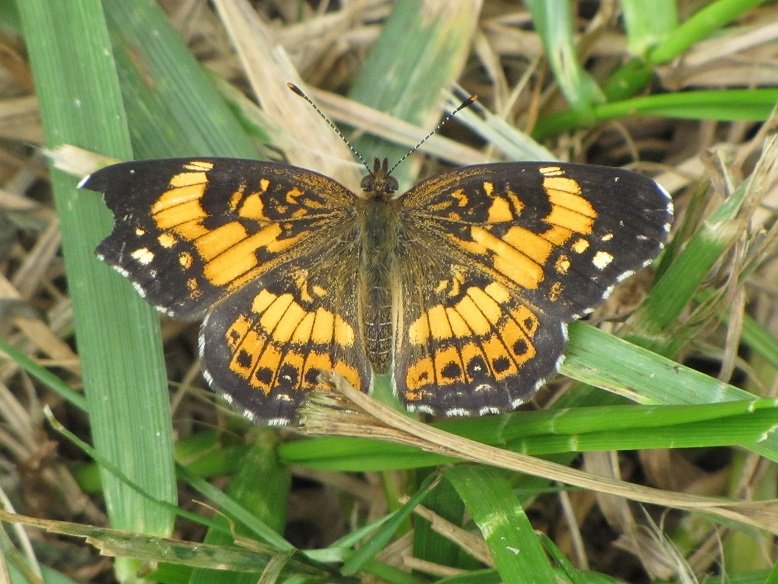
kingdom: Animalia
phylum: Arthropoda
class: Insecta
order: Lepidoptera
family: Nymphalidae
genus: Chlosyne
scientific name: Chlosyne nycteis
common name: Silvery Checkerspot
